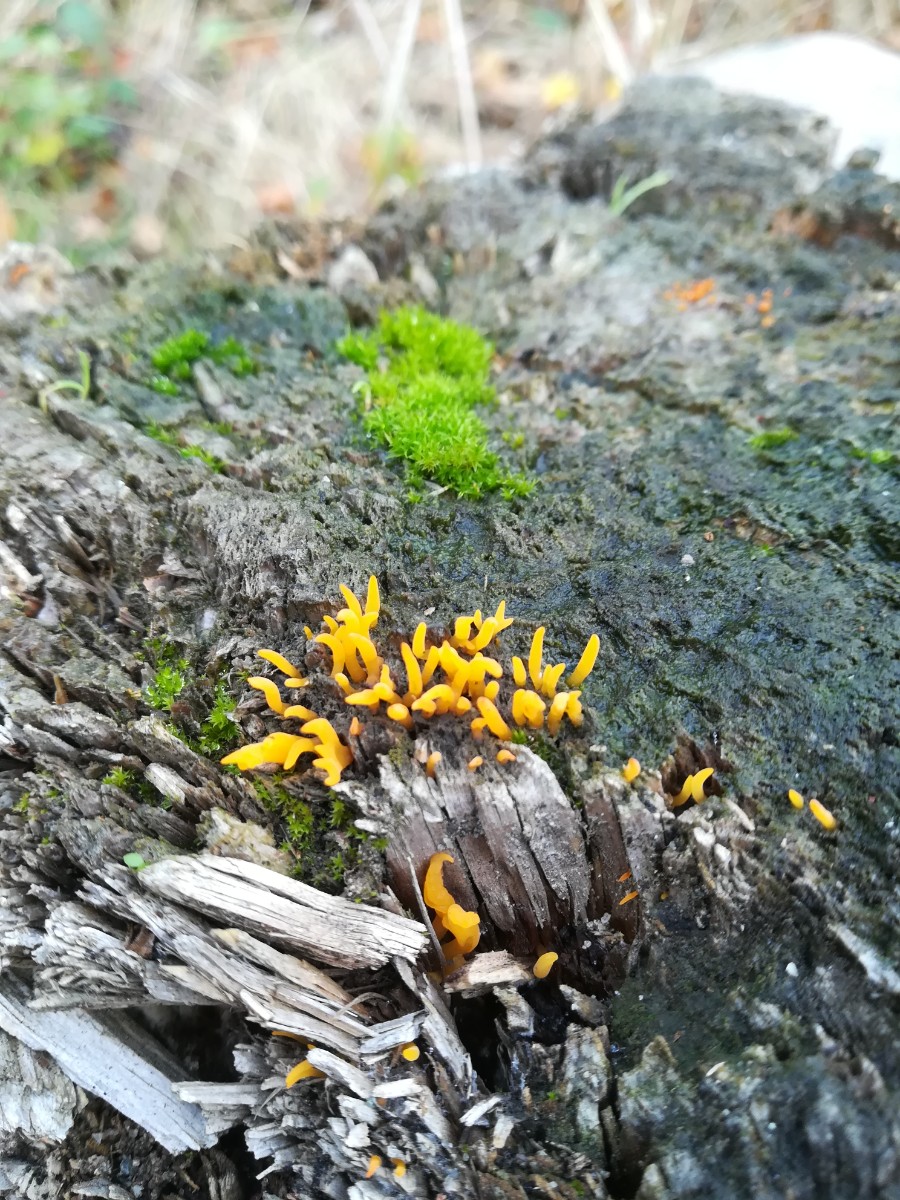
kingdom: Fungi
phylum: Basidiomycota
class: Dacrymycetes
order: Dacrymycetales
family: Dacrymycetaceae
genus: Calocera
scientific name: Calocera cornea
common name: liden guldgaffel
